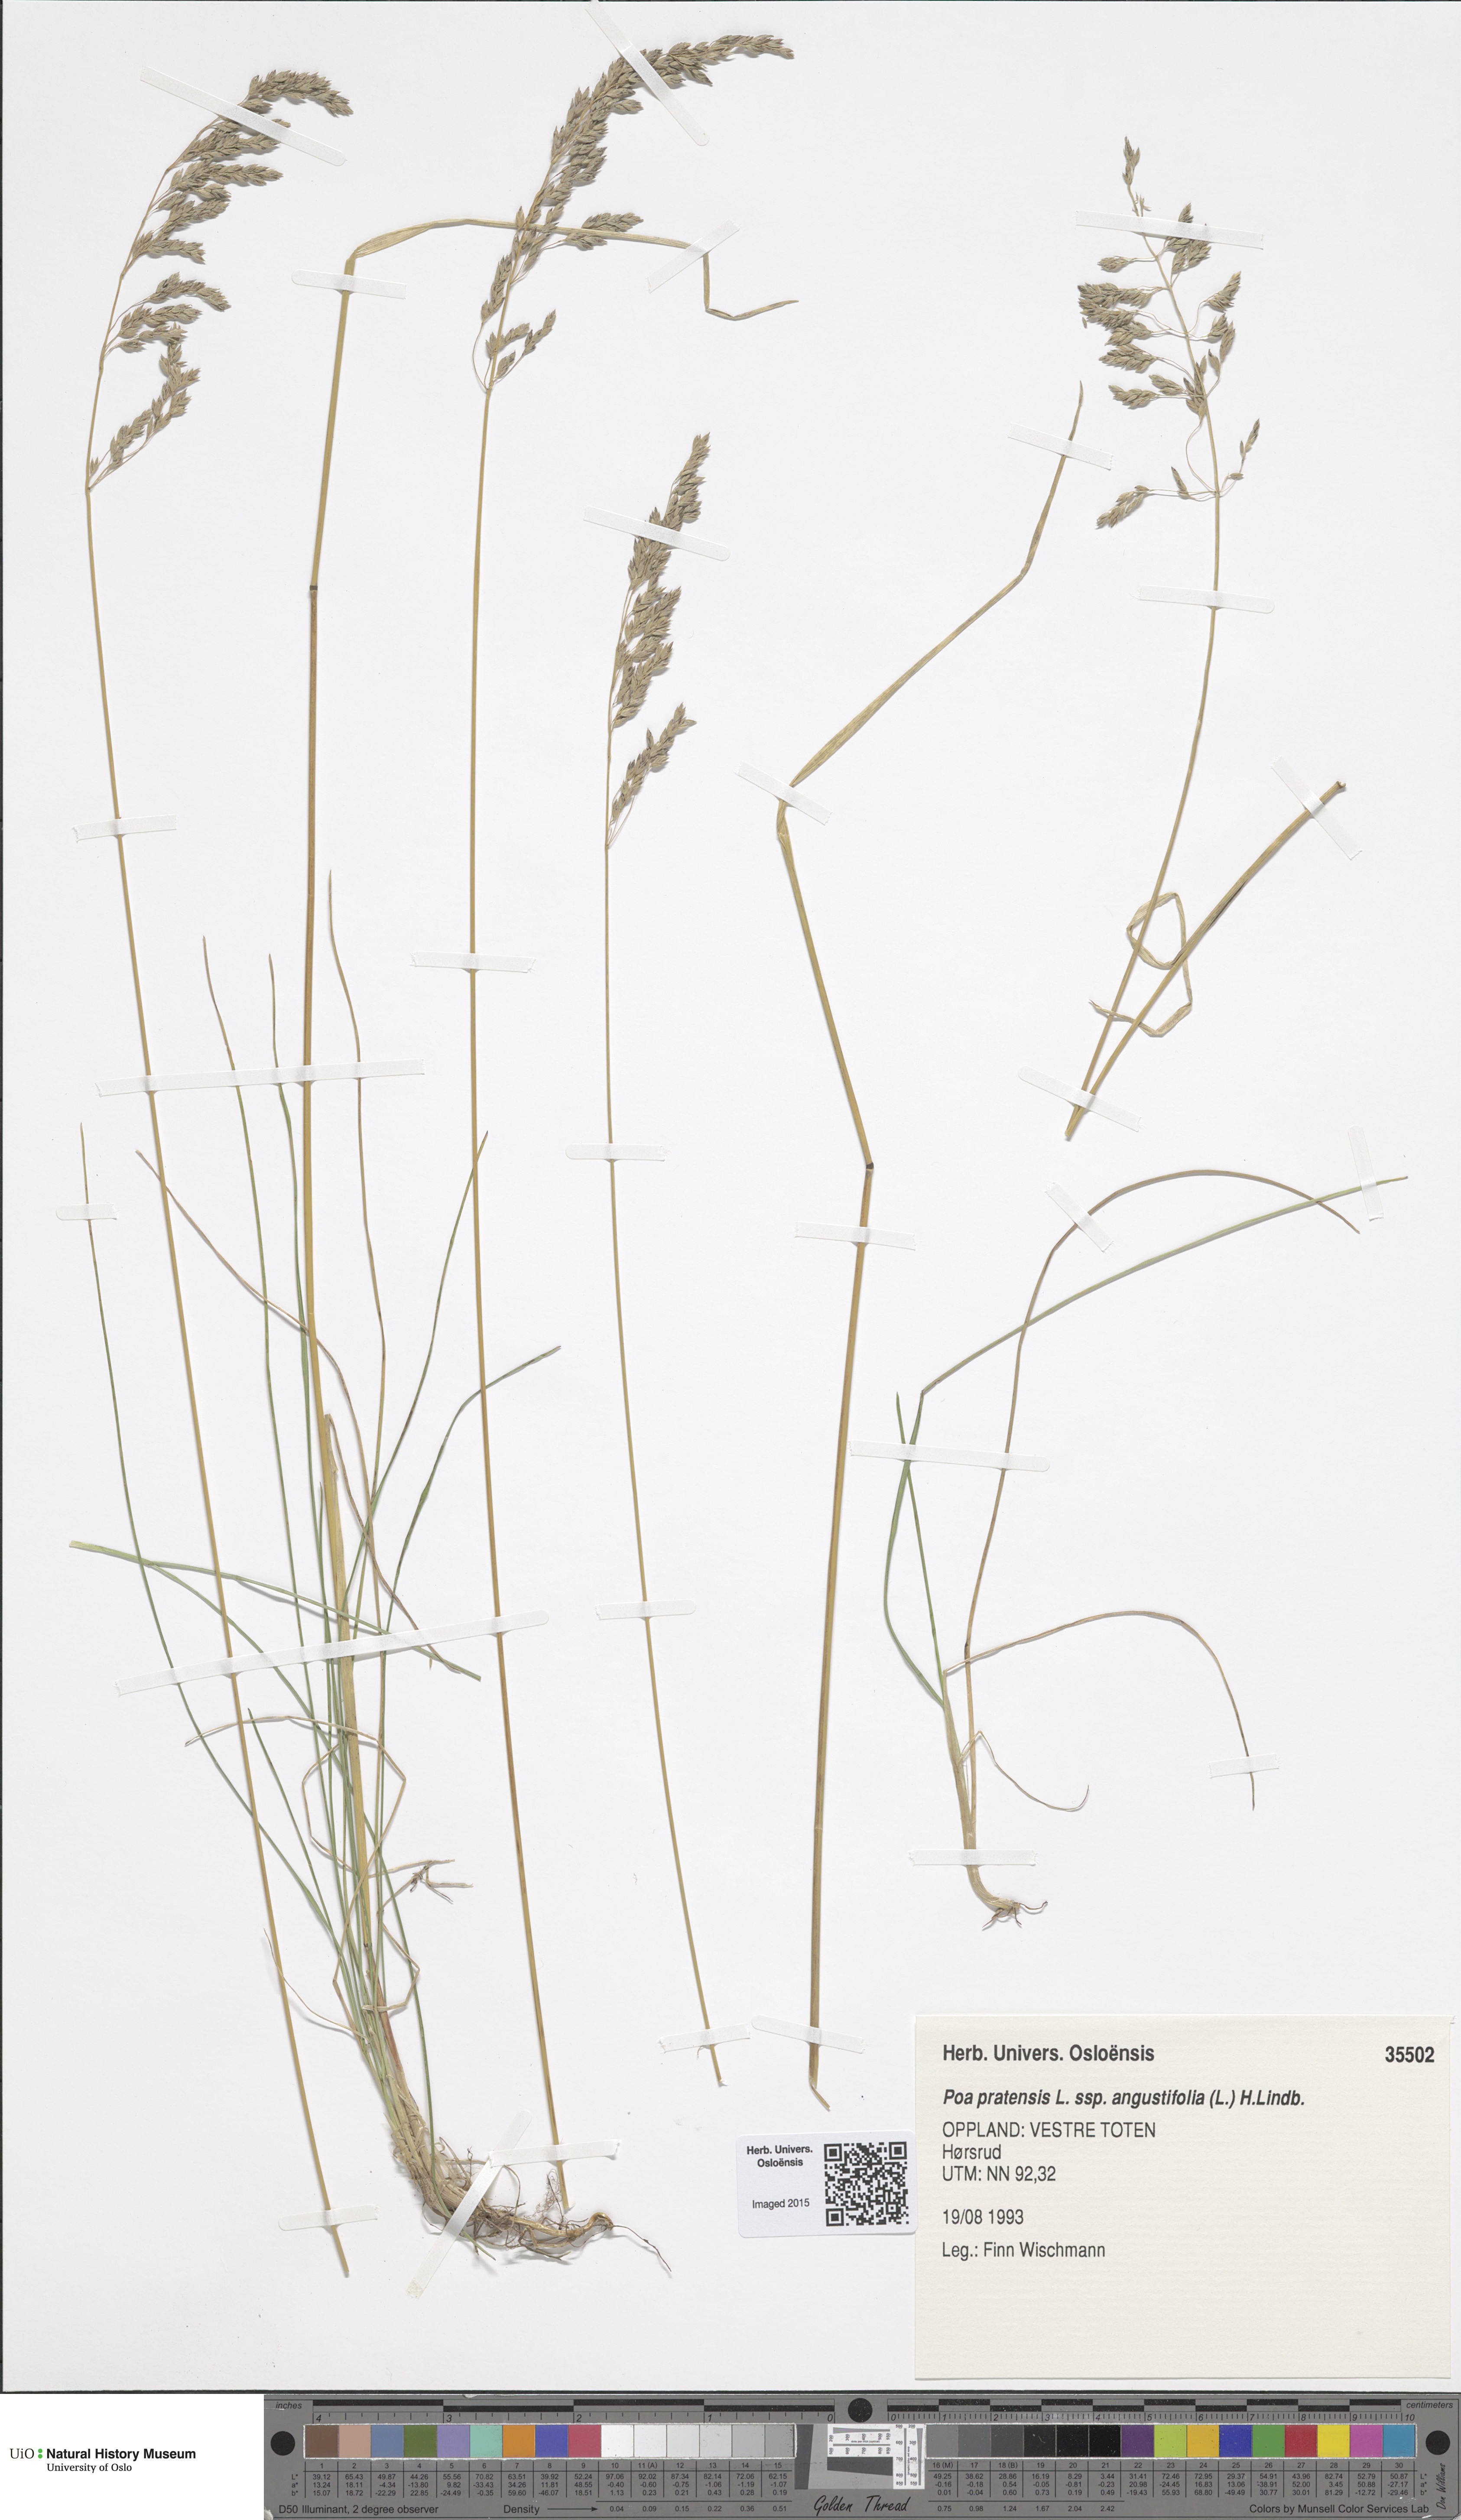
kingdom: Plantae
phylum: Tracheophyta
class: Liliopsida
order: Poales
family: Poaceae
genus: Poa
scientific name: Poa angustifolia
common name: Narrow-leaved meadow-grass
